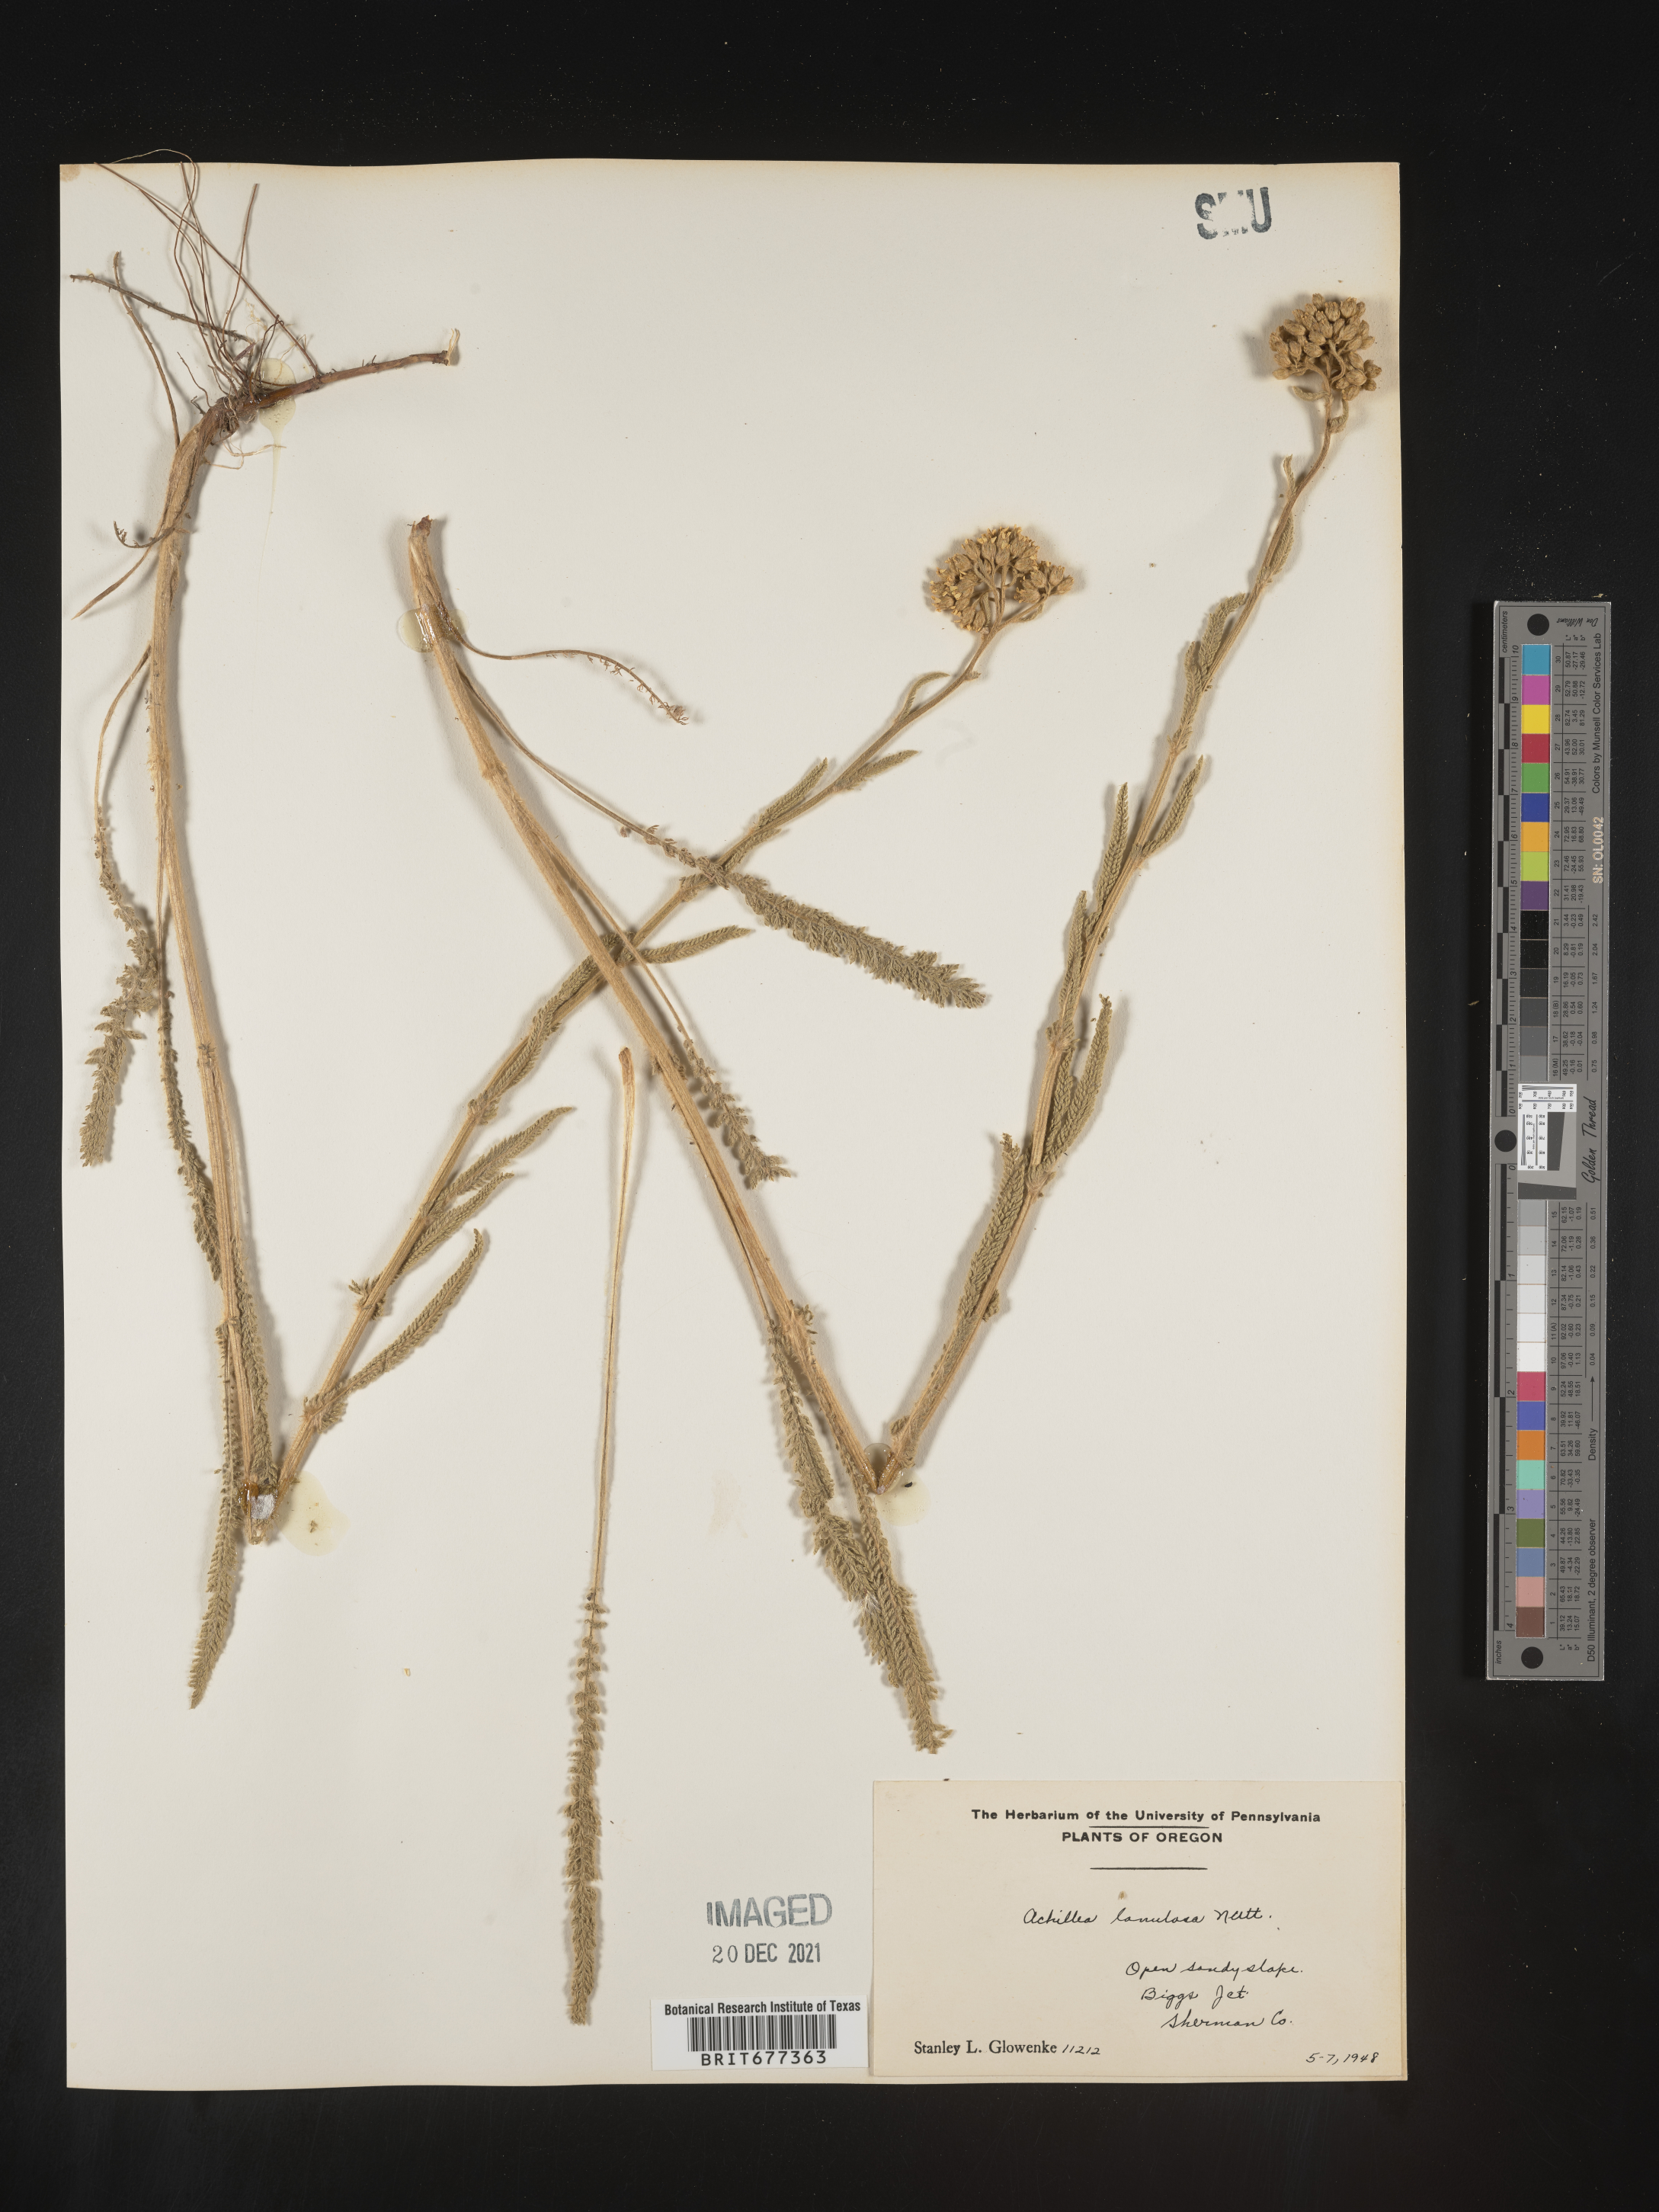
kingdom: Plantae
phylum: Tracheophyta
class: Magnoliopsida
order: Asterales
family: Asteraceae
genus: Achillea
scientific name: Achillea millefolium
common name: Yarrow
